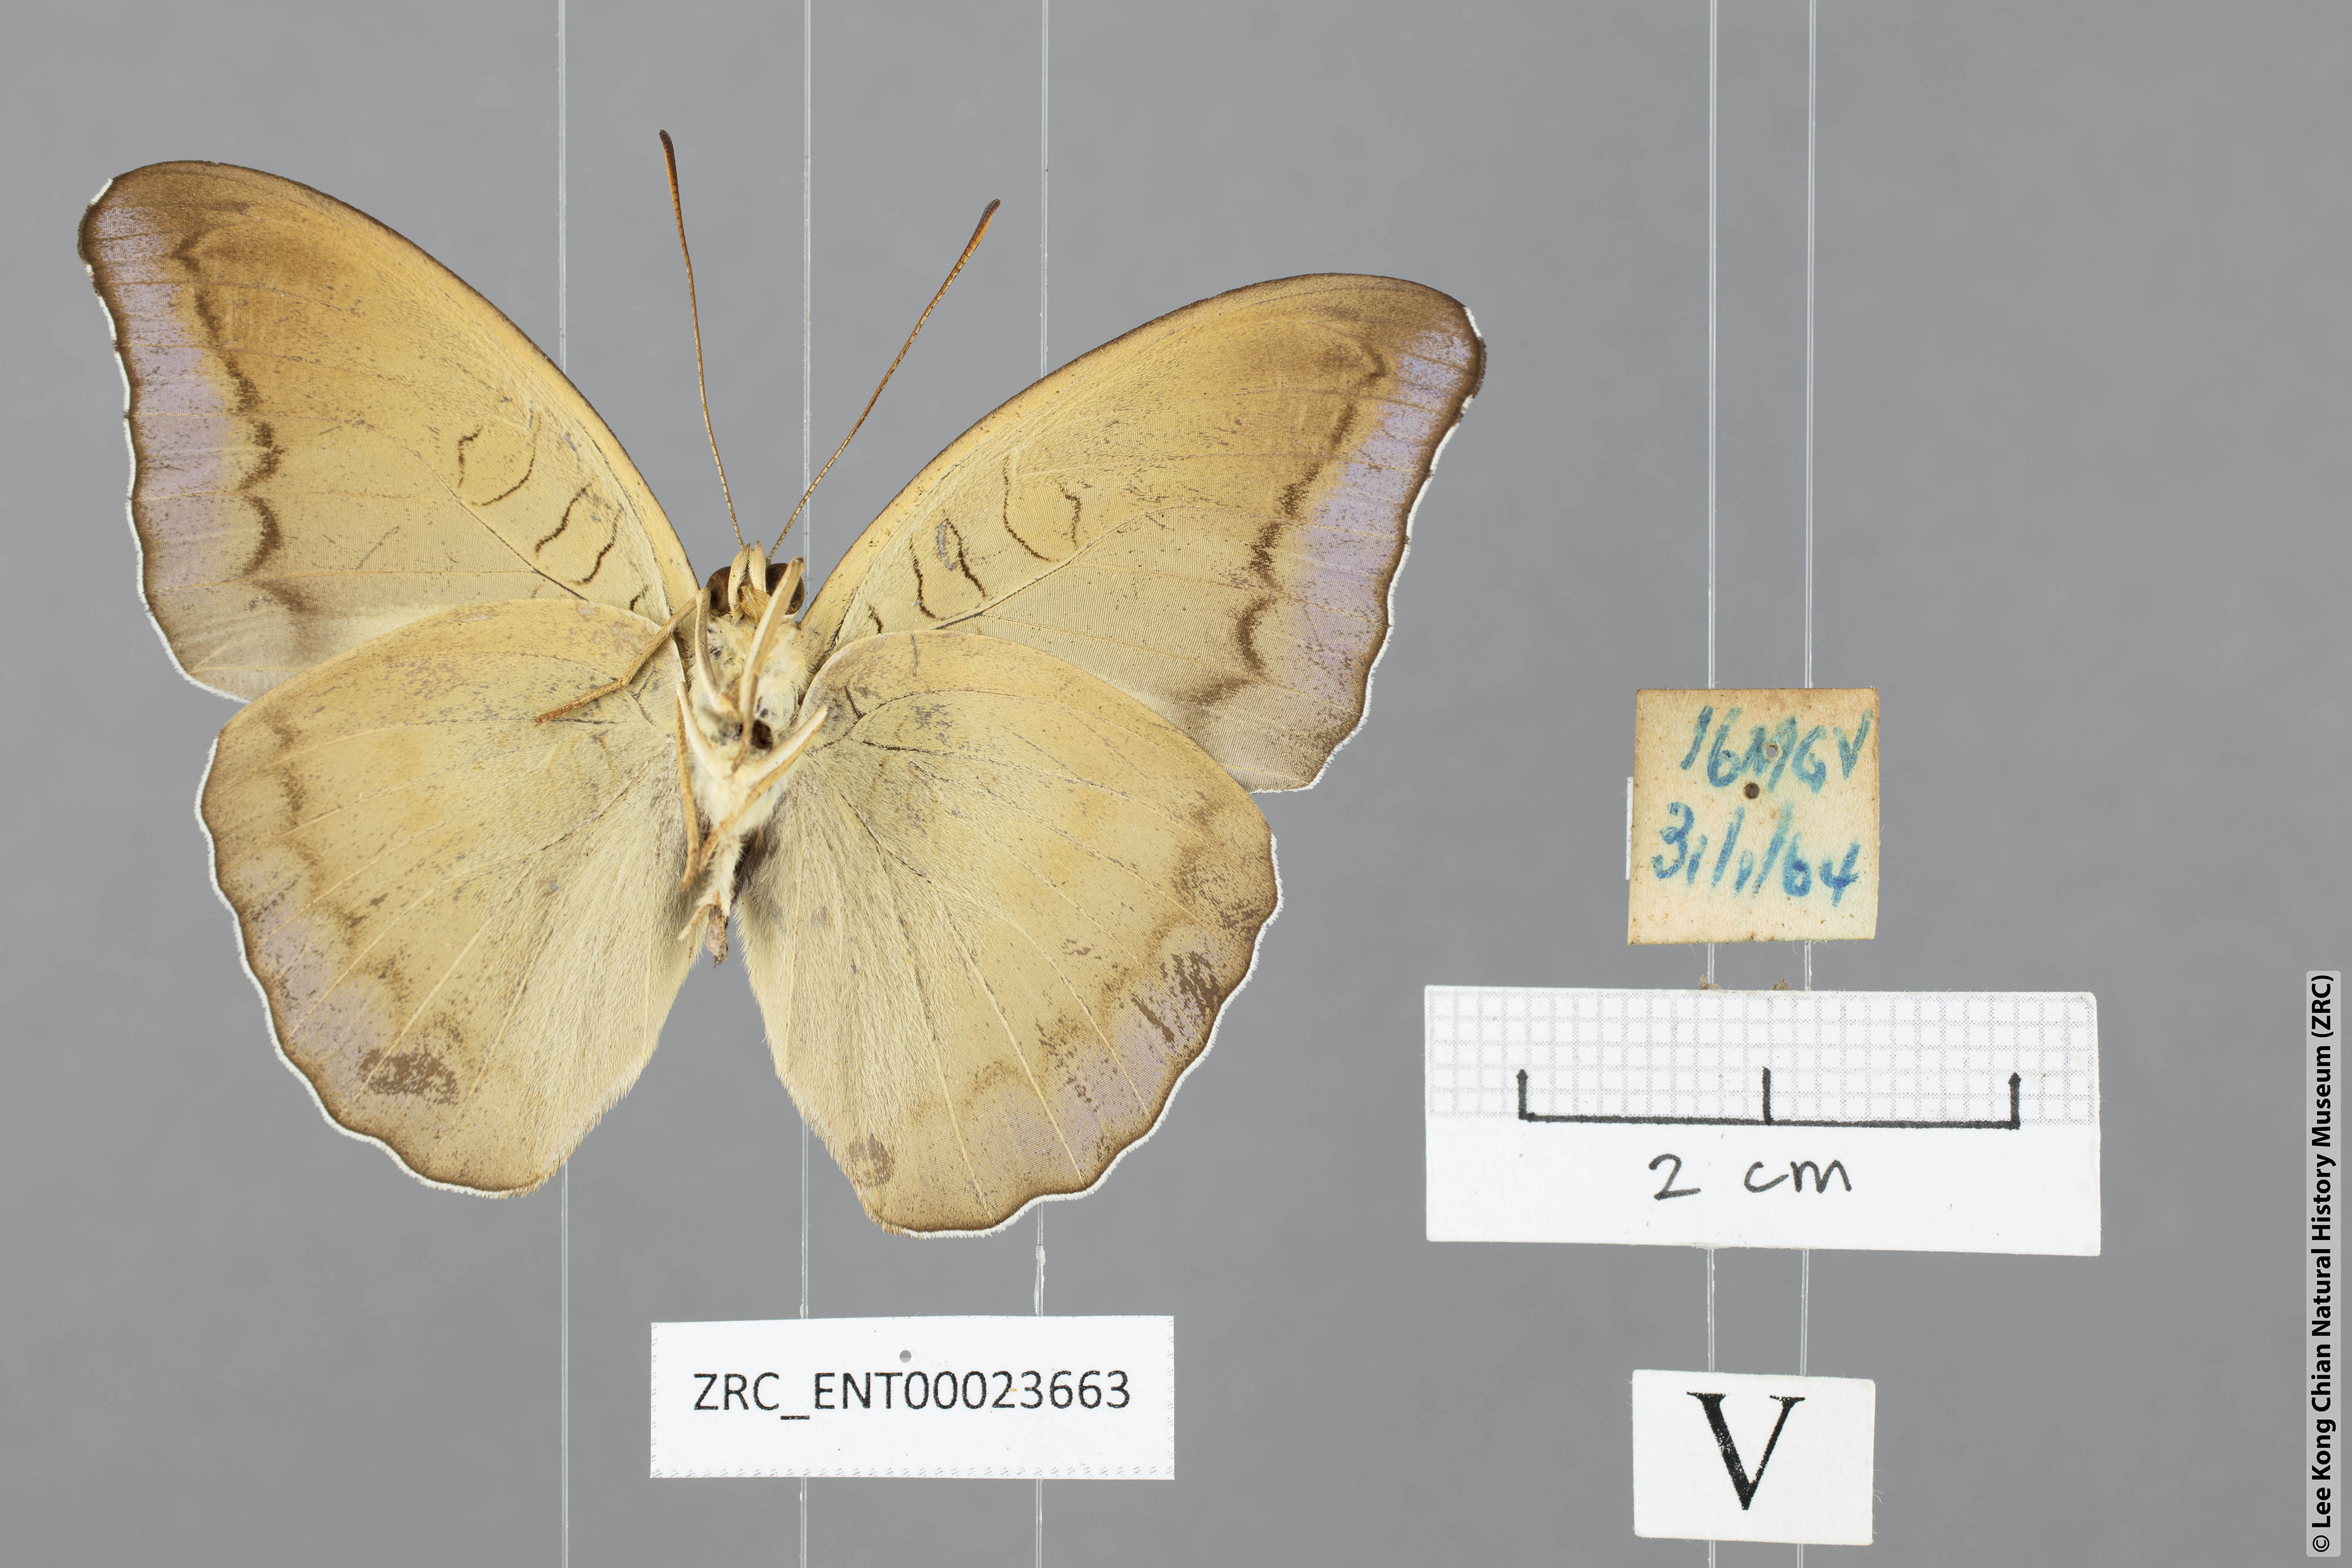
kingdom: Animalia
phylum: Arthropoda
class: Insecta
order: Lepidoptera
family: Nymphalidae
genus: Tanaecia
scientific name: Tanaecia godartii
